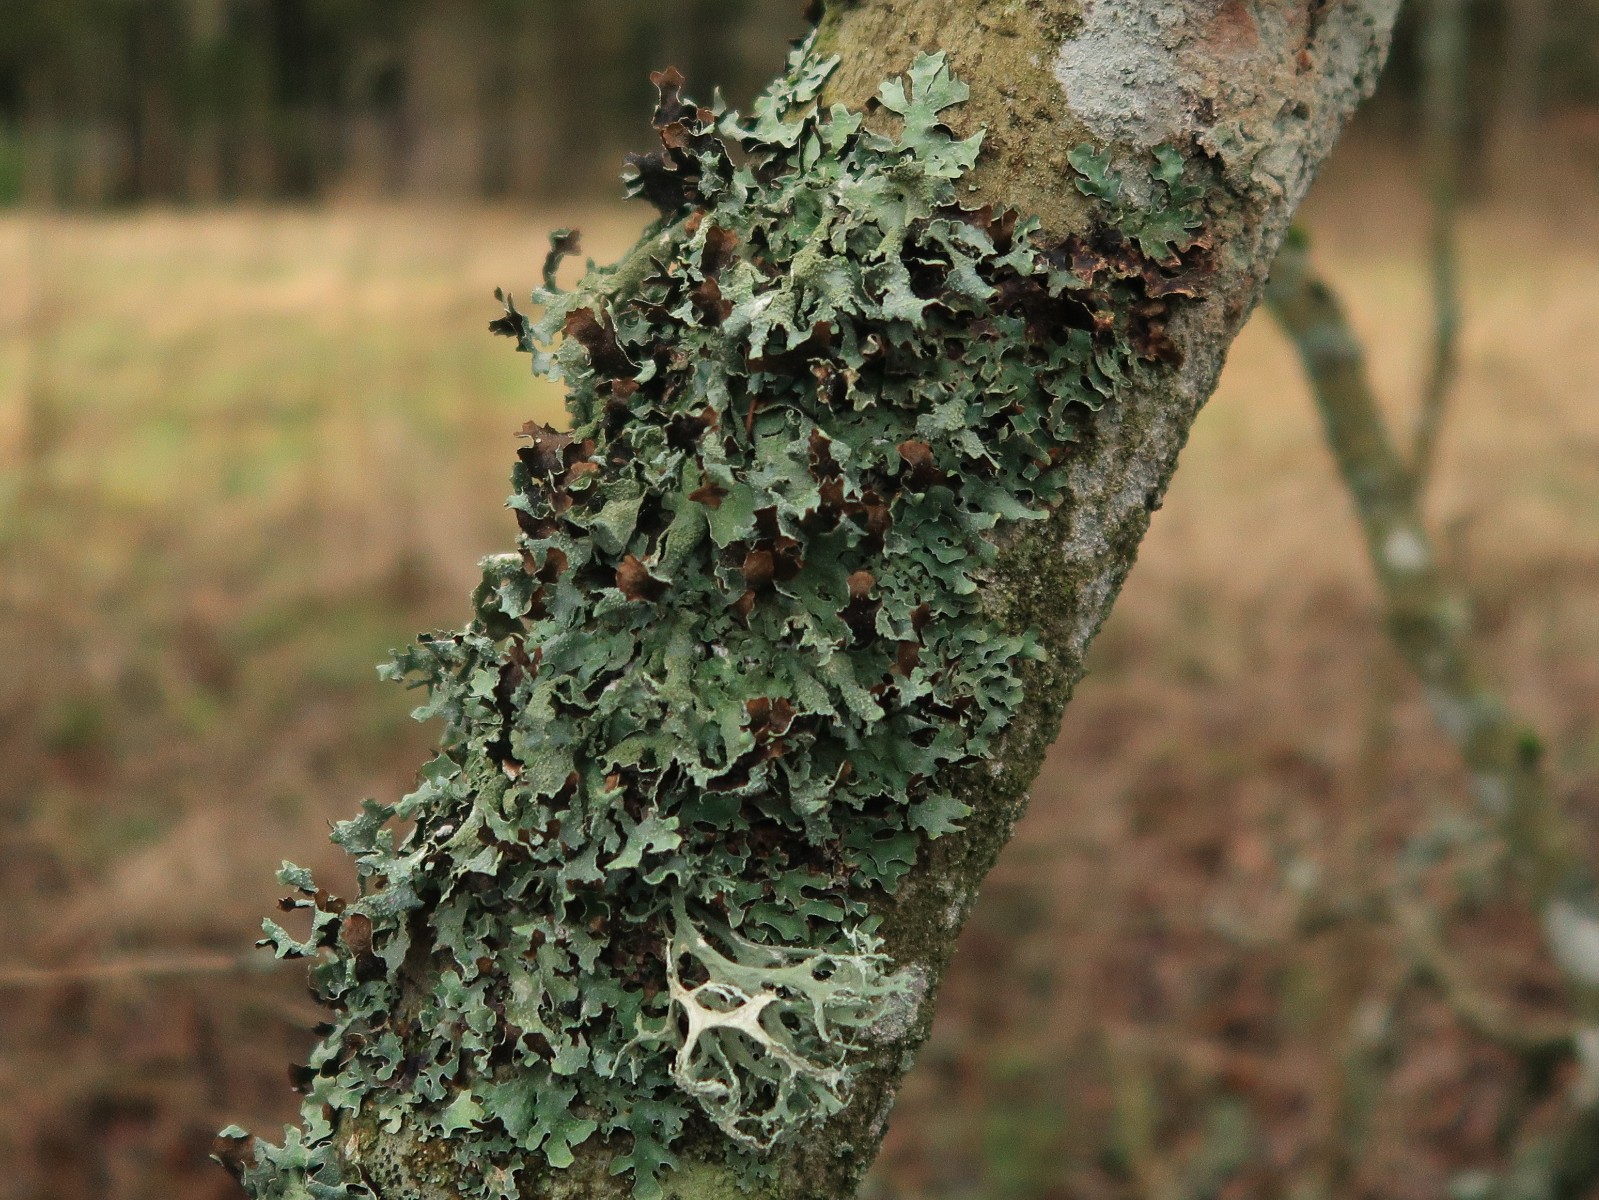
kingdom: Fungi
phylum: Ascomycota
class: Lecanoromycetes
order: Lecanorales
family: Parmeliaceae
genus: Parmelia
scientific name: Parmelia submontana
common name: langlobet skållav
